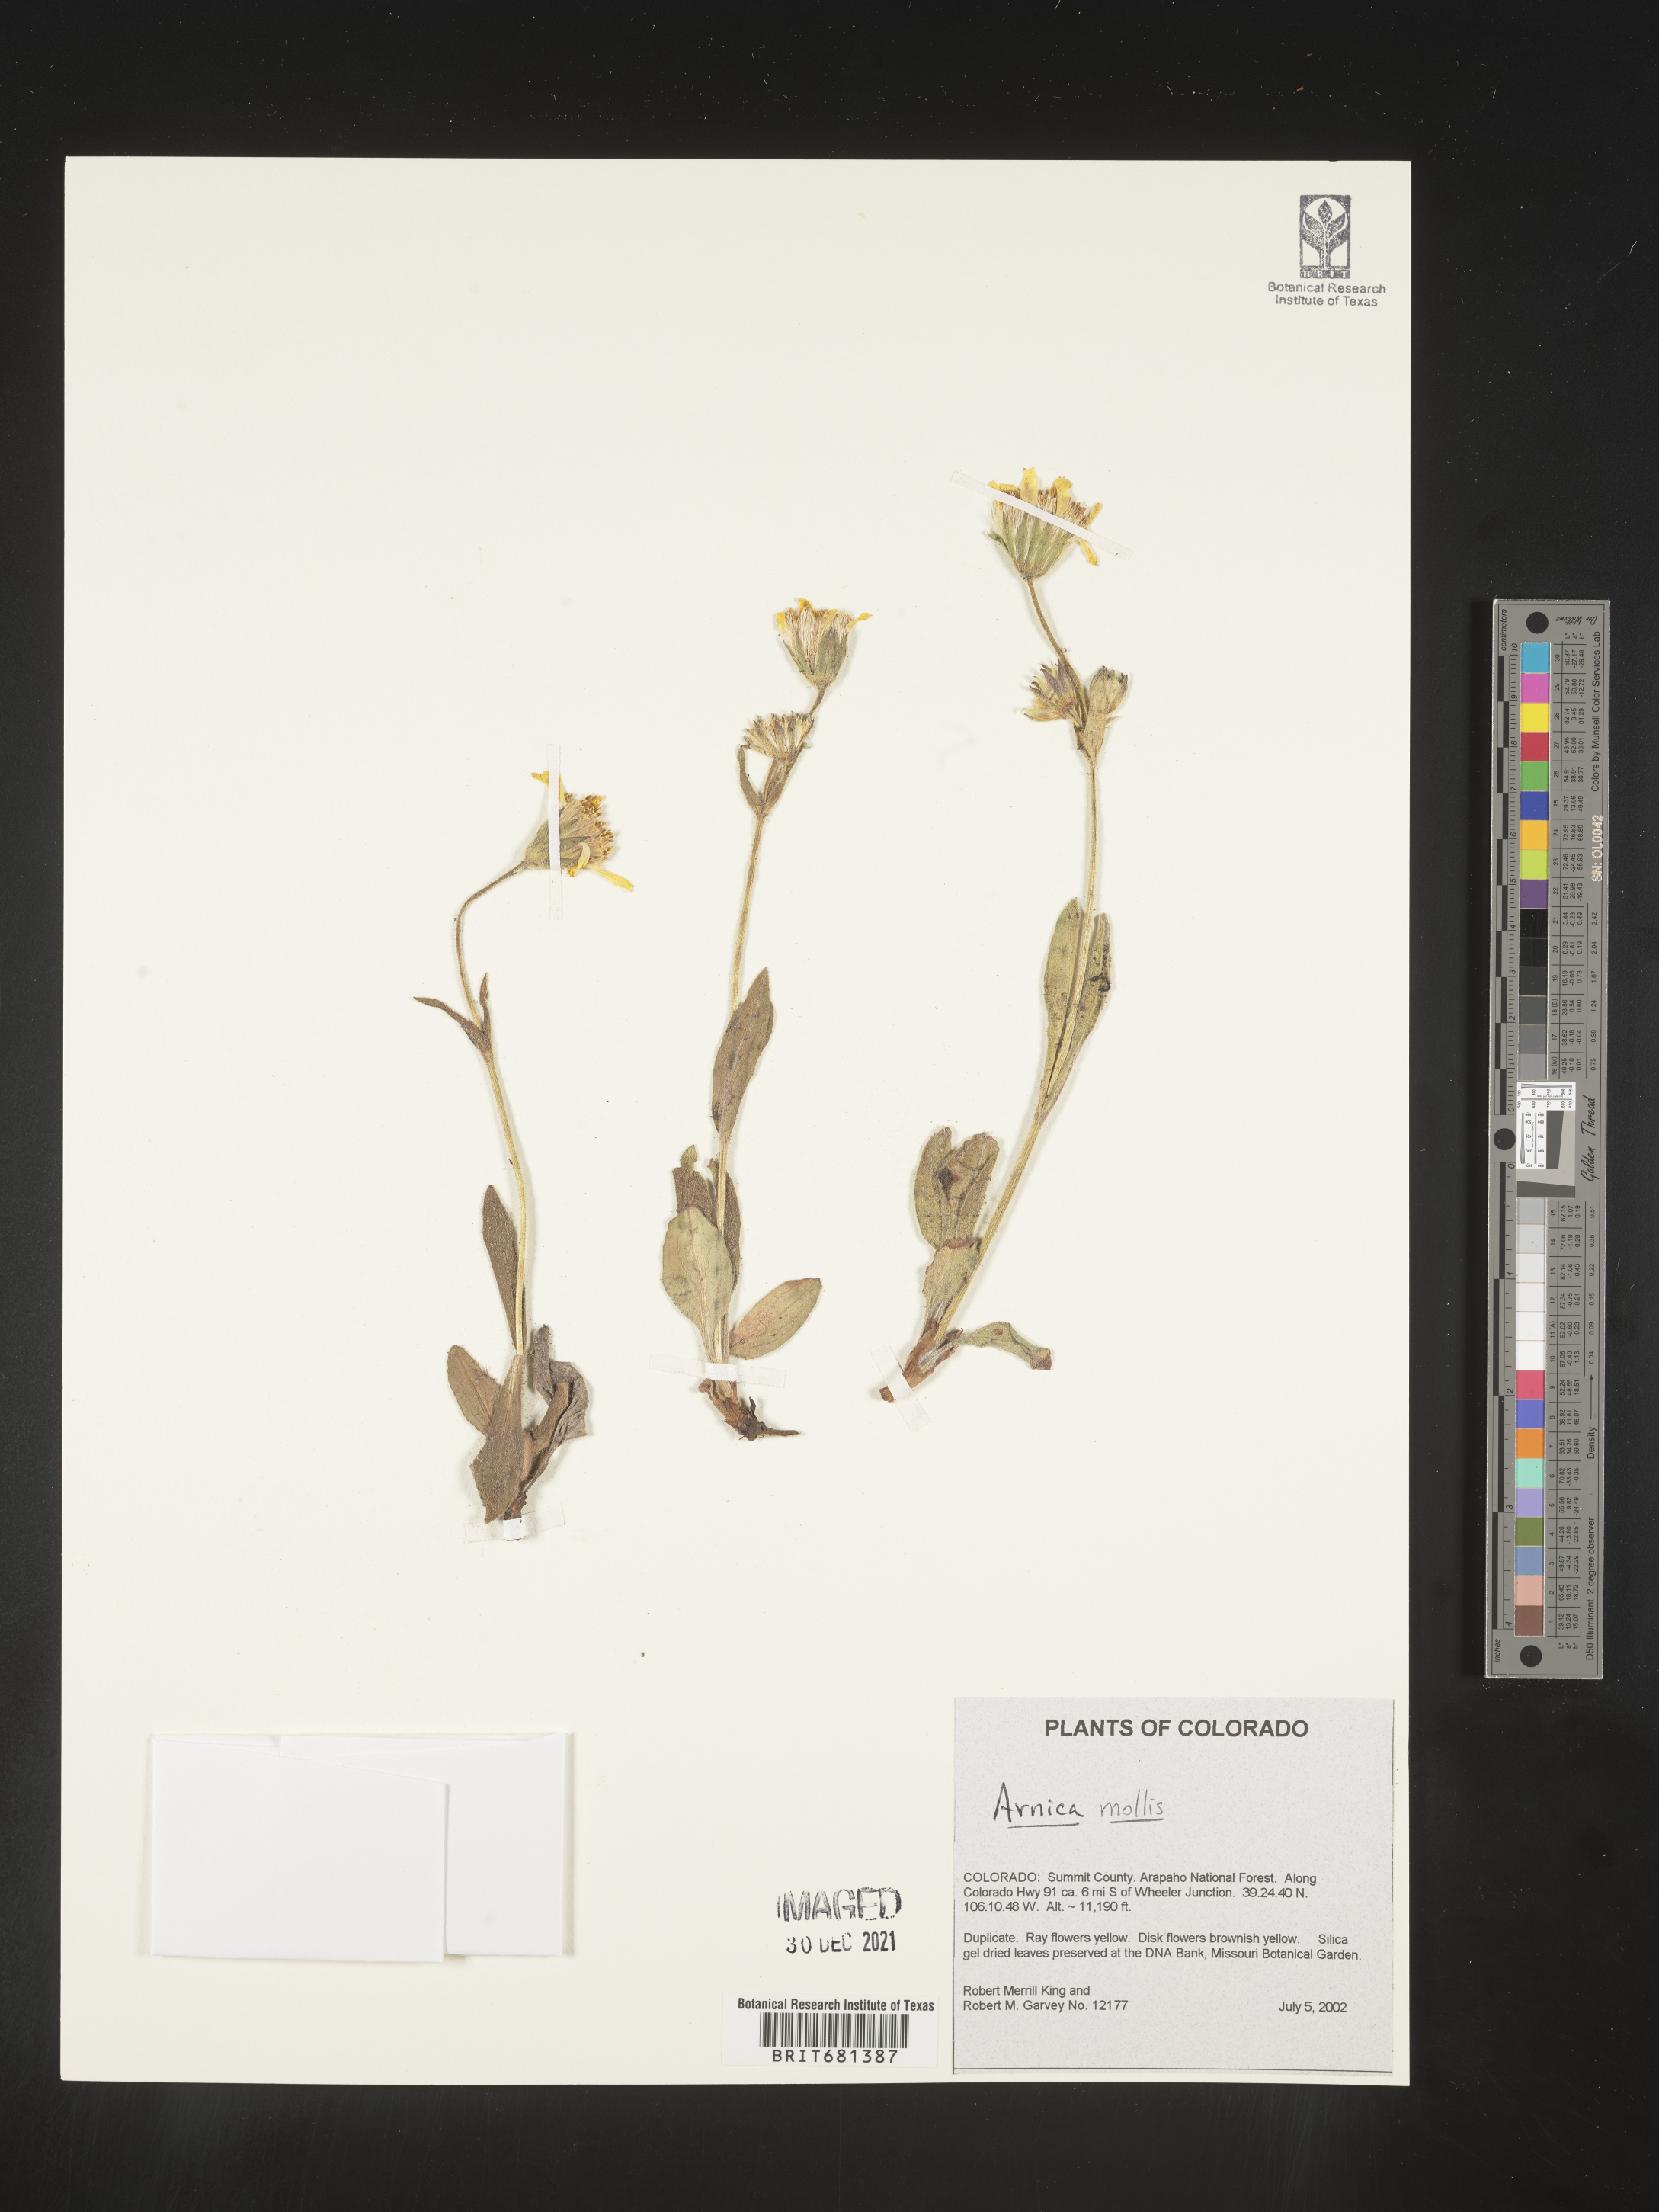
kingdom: Plantae
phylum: Tracheophyta
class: Magnoliopsida
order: Asterales
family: Asteraceae
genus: Arnica
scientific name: Arnica mollis
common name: Hairy arnica
